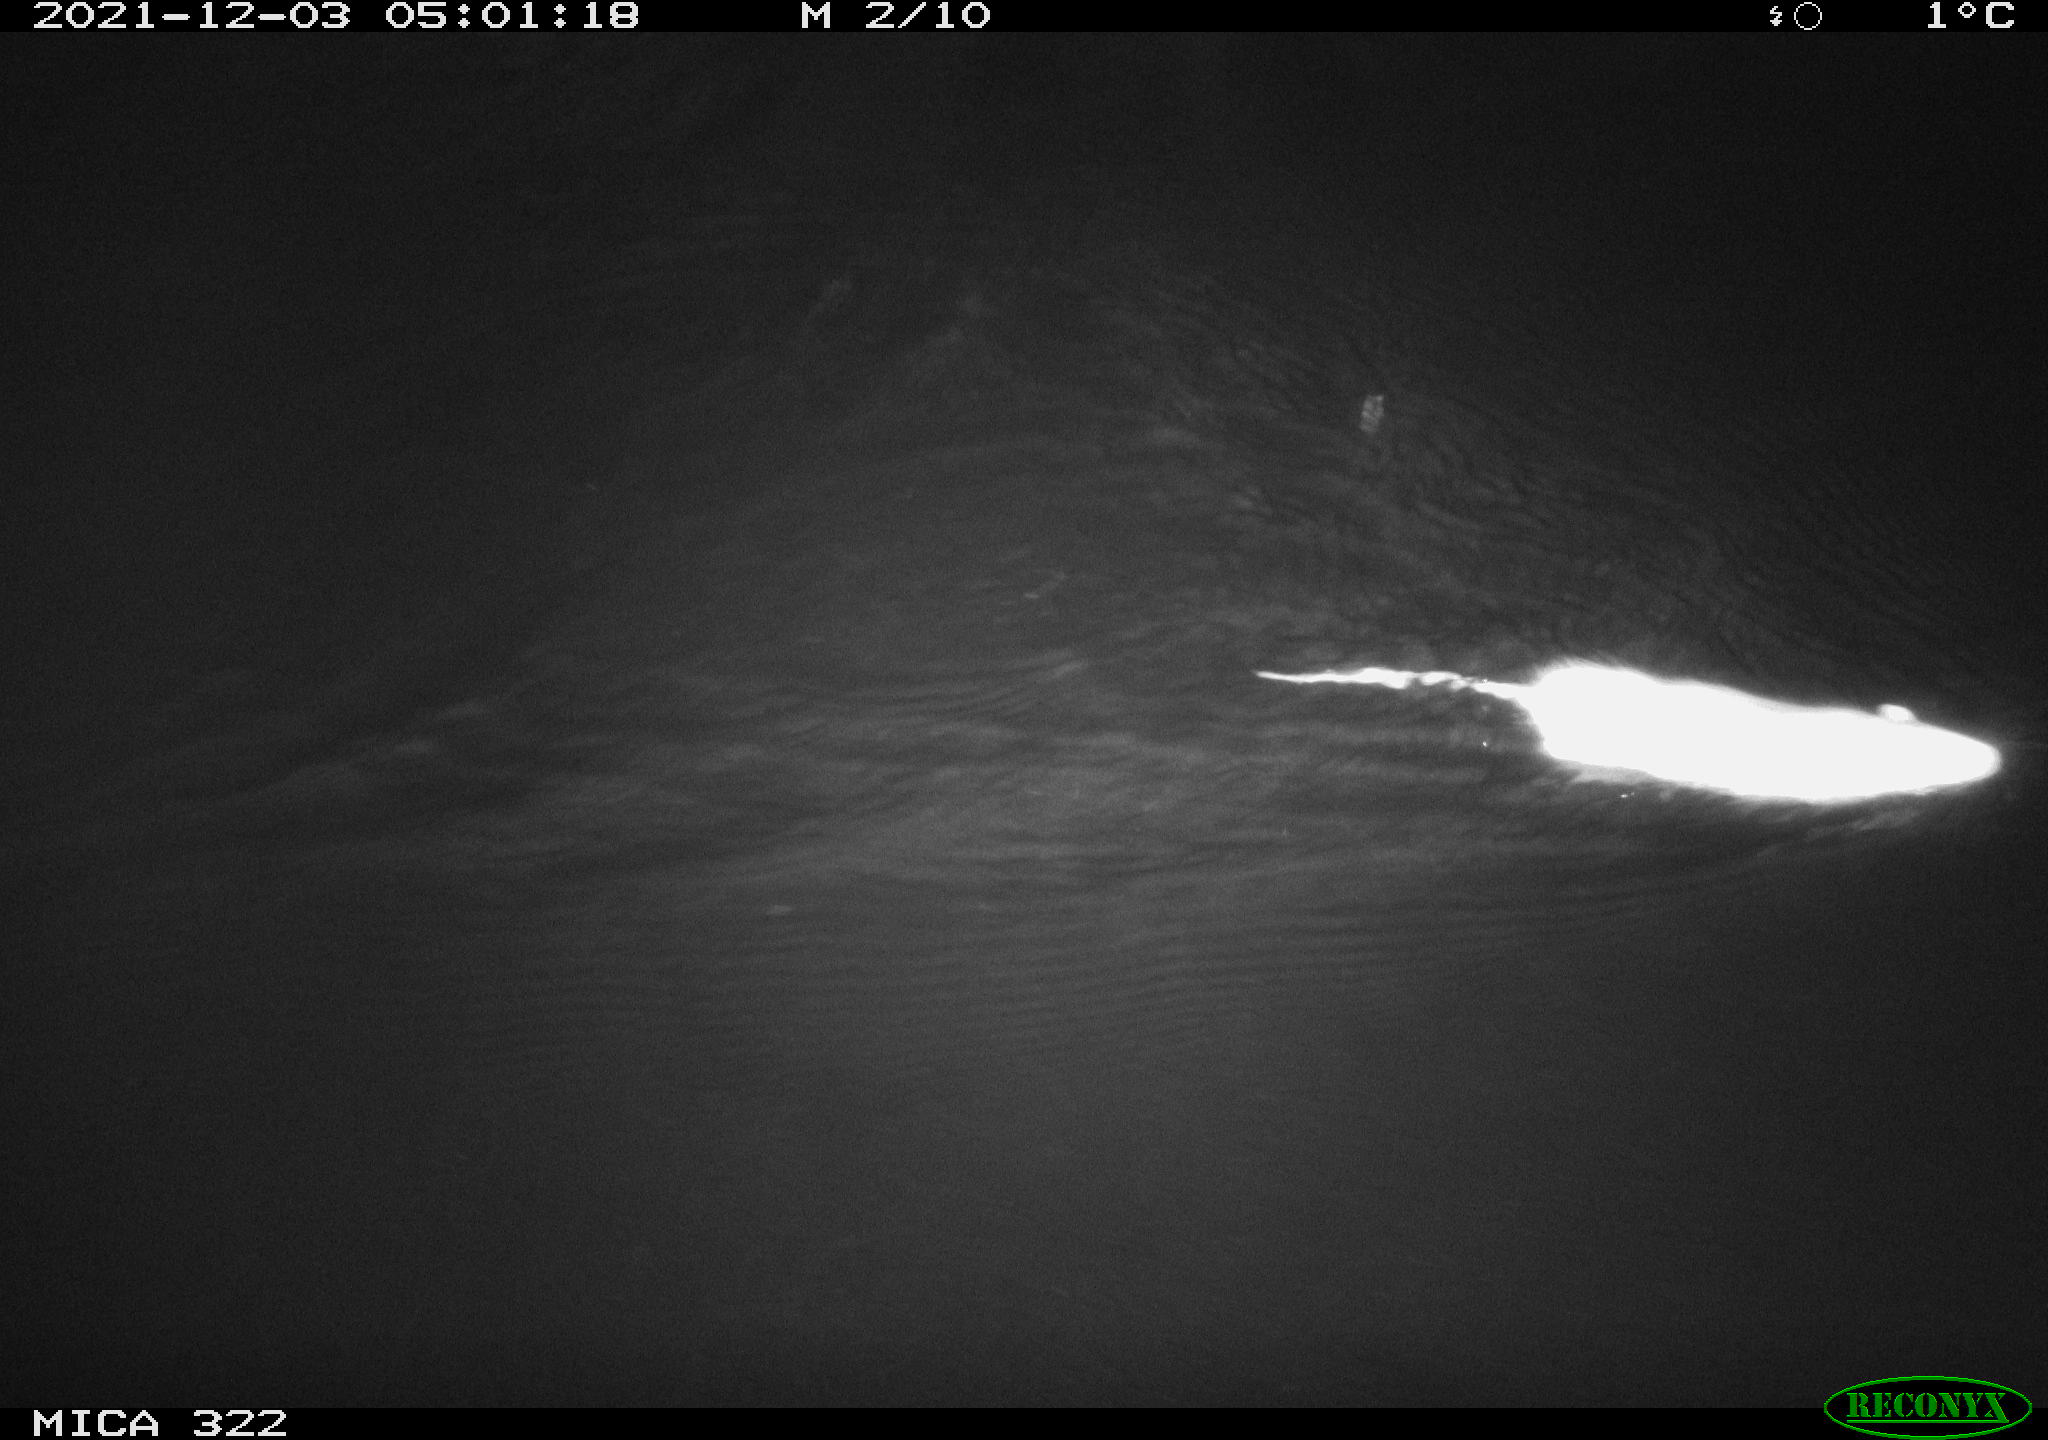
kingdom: Animalia
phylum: Chordata
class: Mammalia
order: Rodentia
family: Muridae
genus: Rattus
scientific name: Rattus norvegicus
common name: Brown rat
